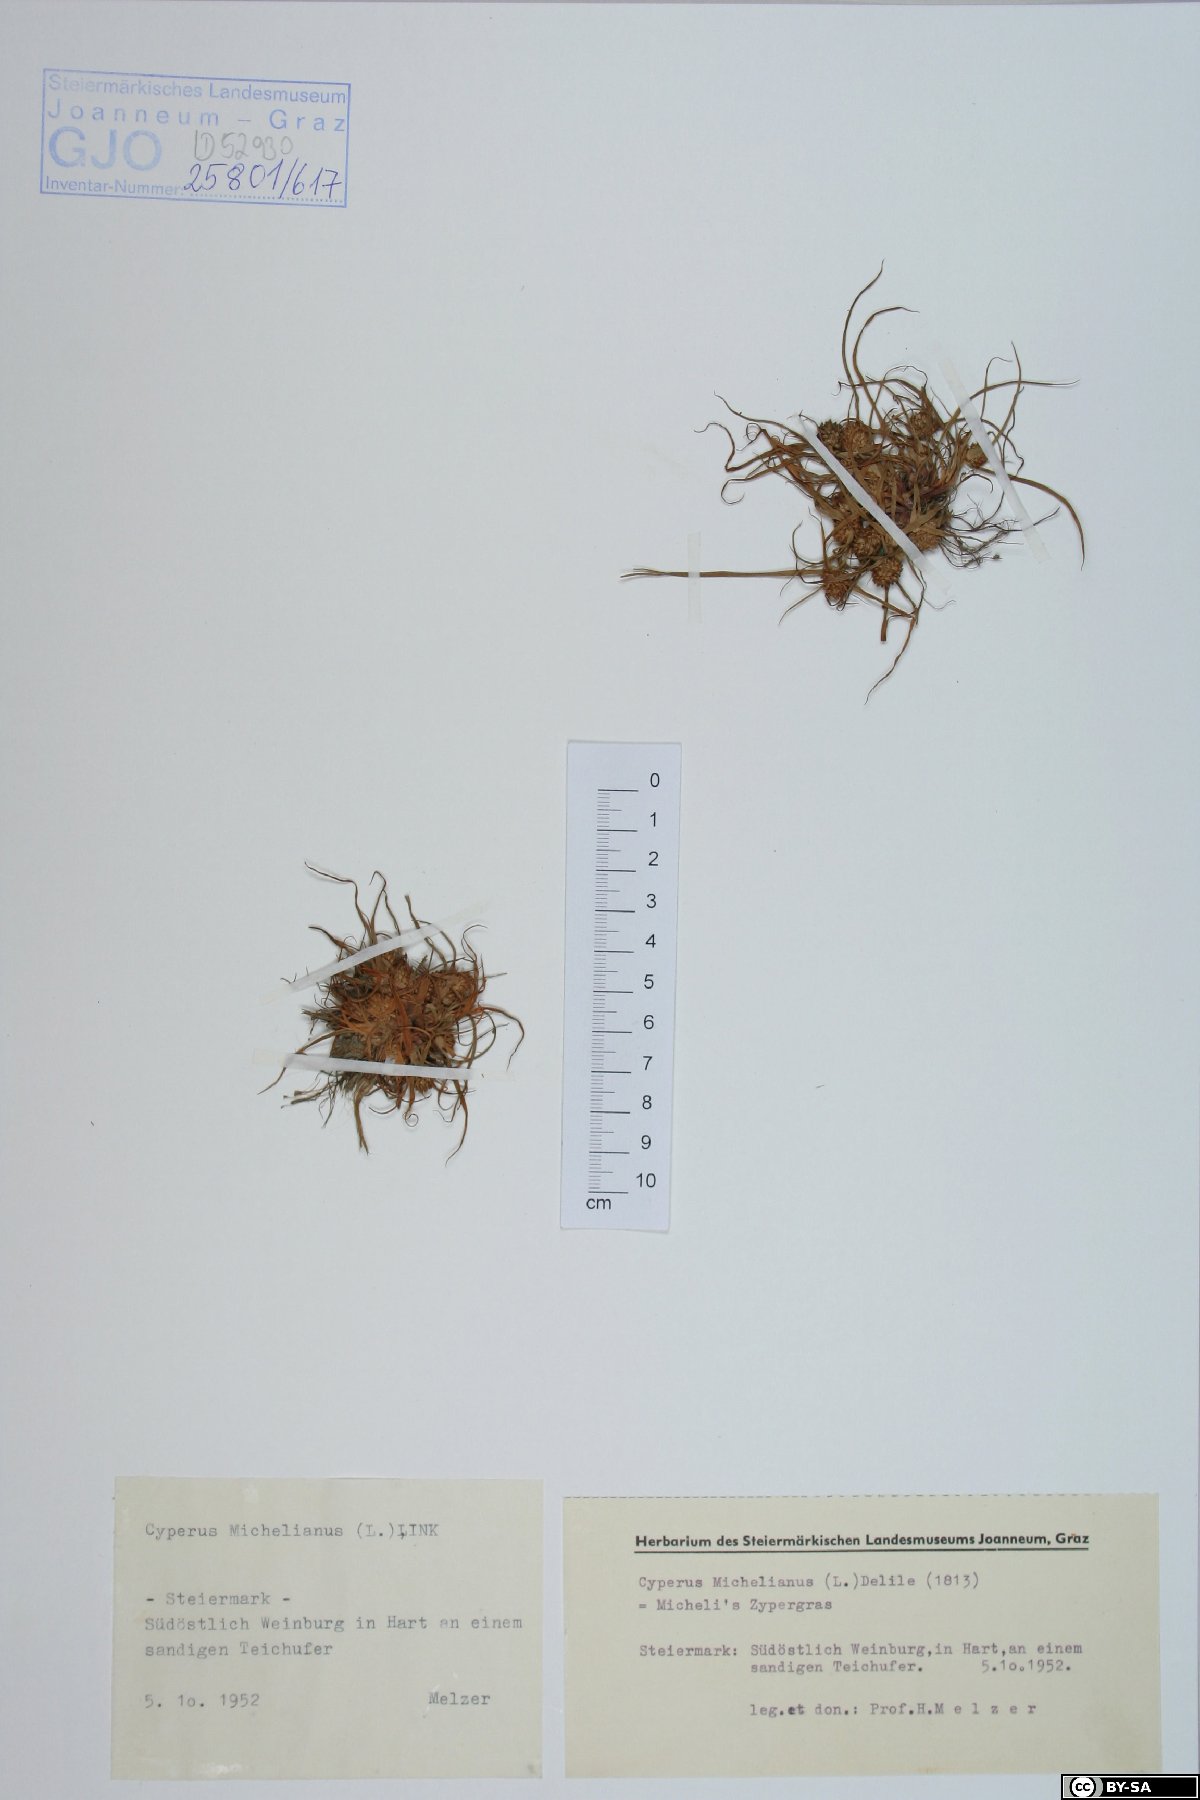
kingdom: Plantae
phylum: Tracheophyta
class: Liliopsida
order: Poales
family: Cyperaceae
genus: Cyperus
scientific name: Cyperus michelianus
